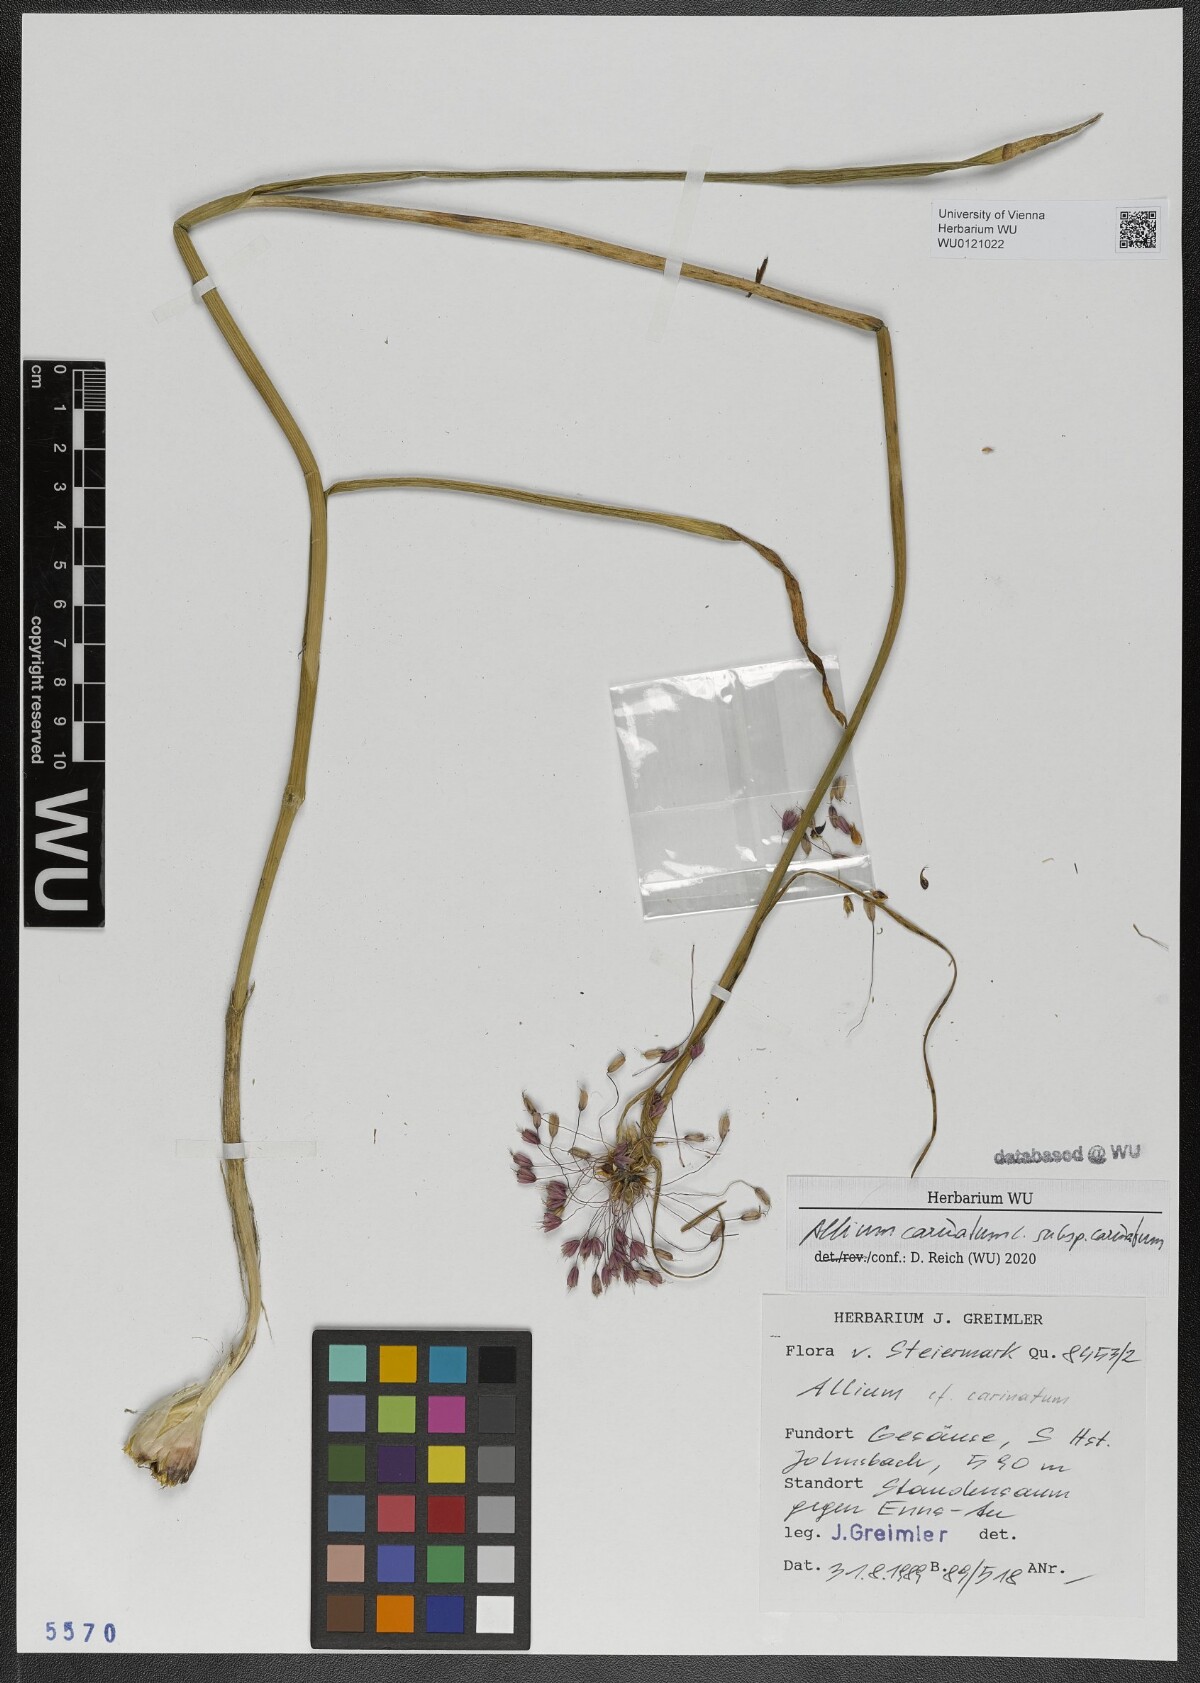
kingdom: Plantae
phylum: Tracheophyta
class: Liliopsida
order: Asparagales
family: Amaryllidaceae
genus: Allium
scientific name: Allium carinatum
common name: Keeled garlic
